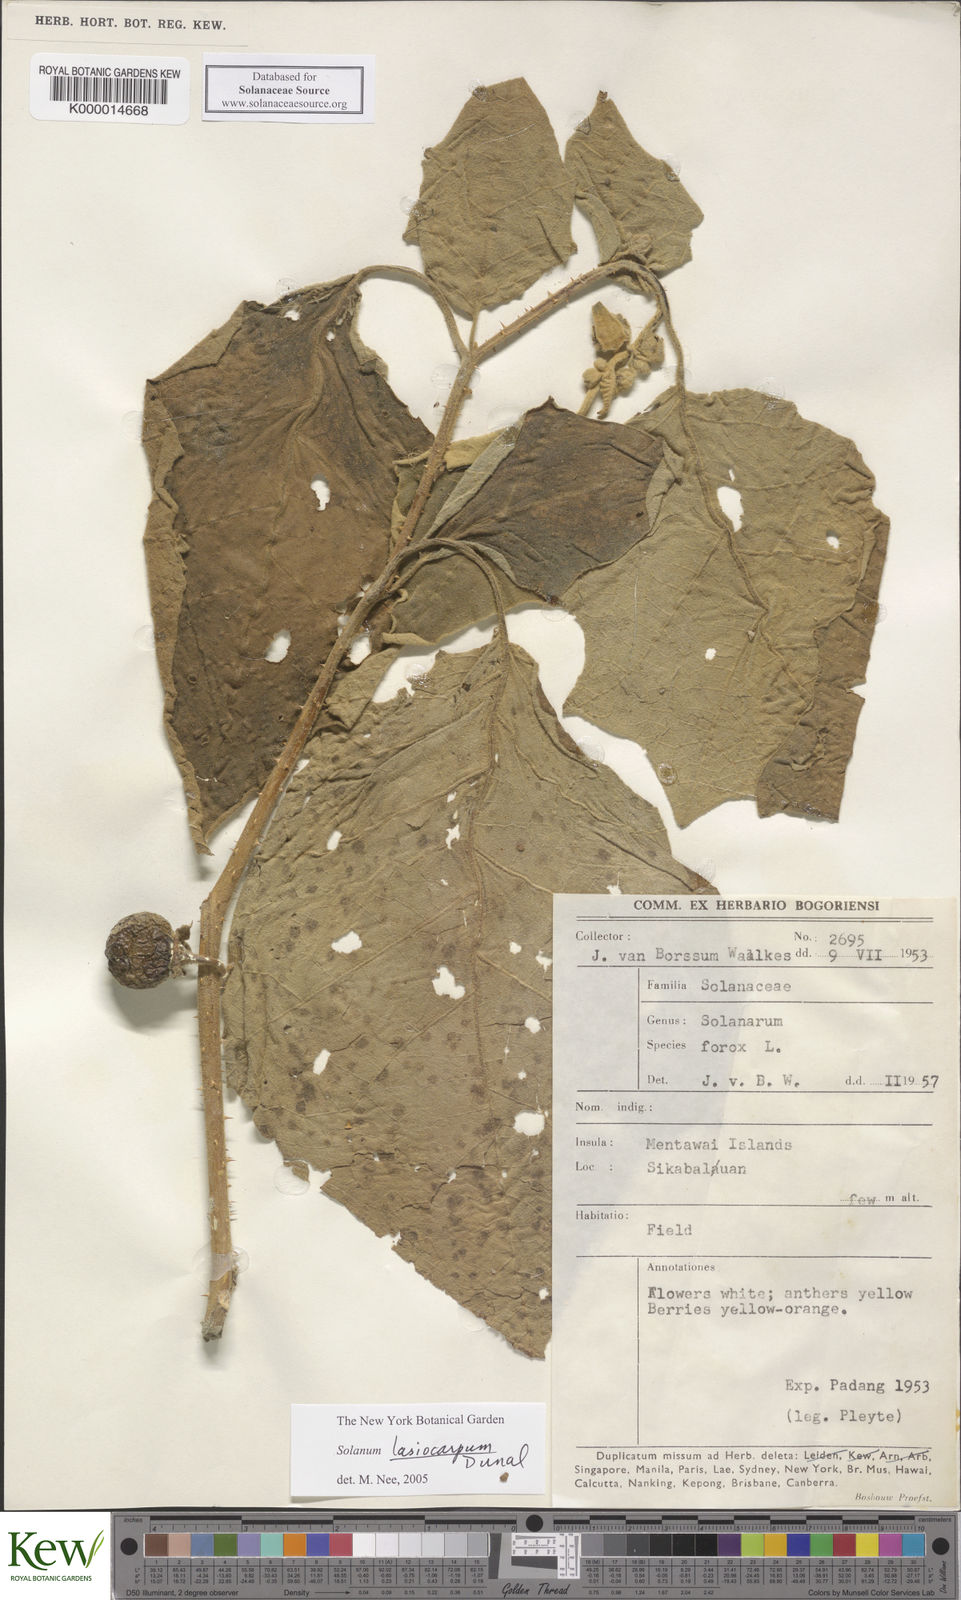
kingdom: Plantae
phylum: Tracheophyta
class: Magnoliopsida
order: Solanales
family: Solanaceae
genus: Solanum
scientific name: Solanum lasiocarpum
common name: Indian nightshade
